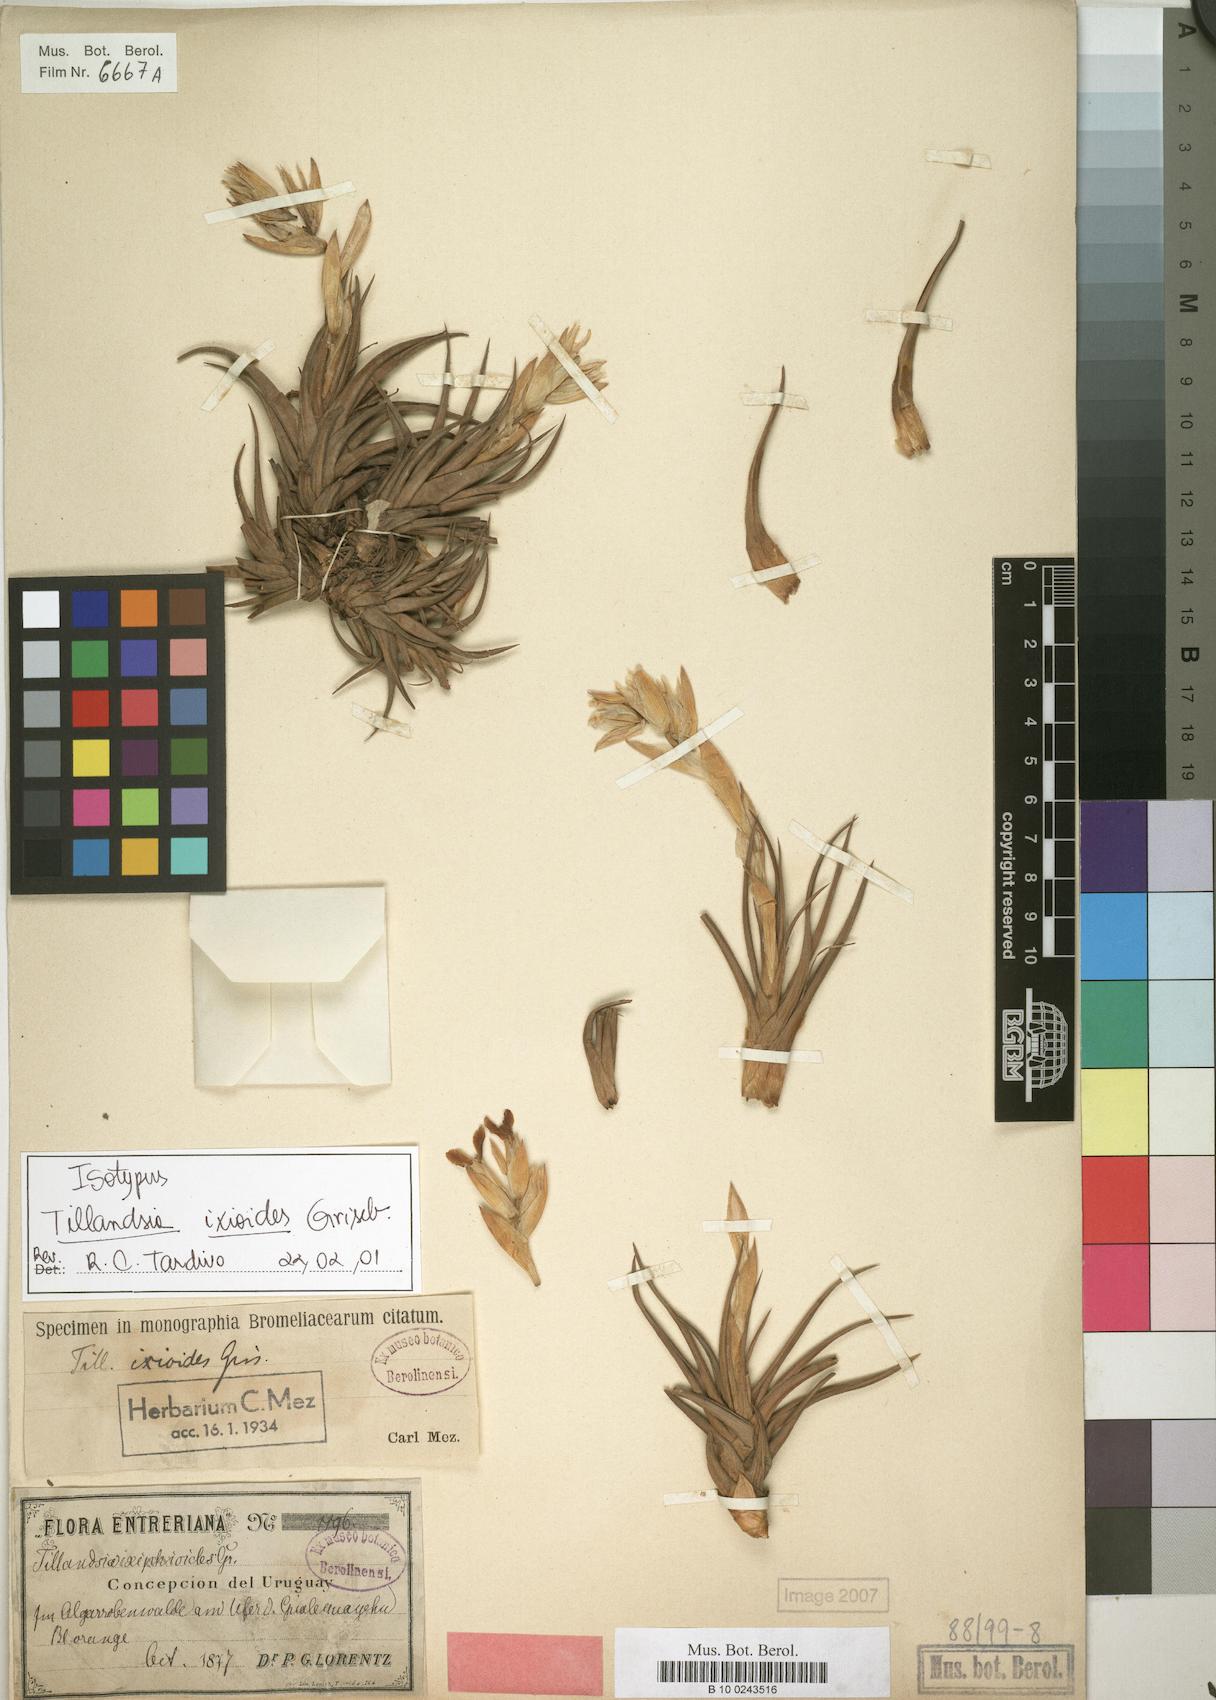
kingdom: Plantae
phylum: Tracheophyta
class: Liliopsida
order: Poales
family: Bromeliaceae
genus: Tillandsia
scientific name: Tillandsia ixioides
